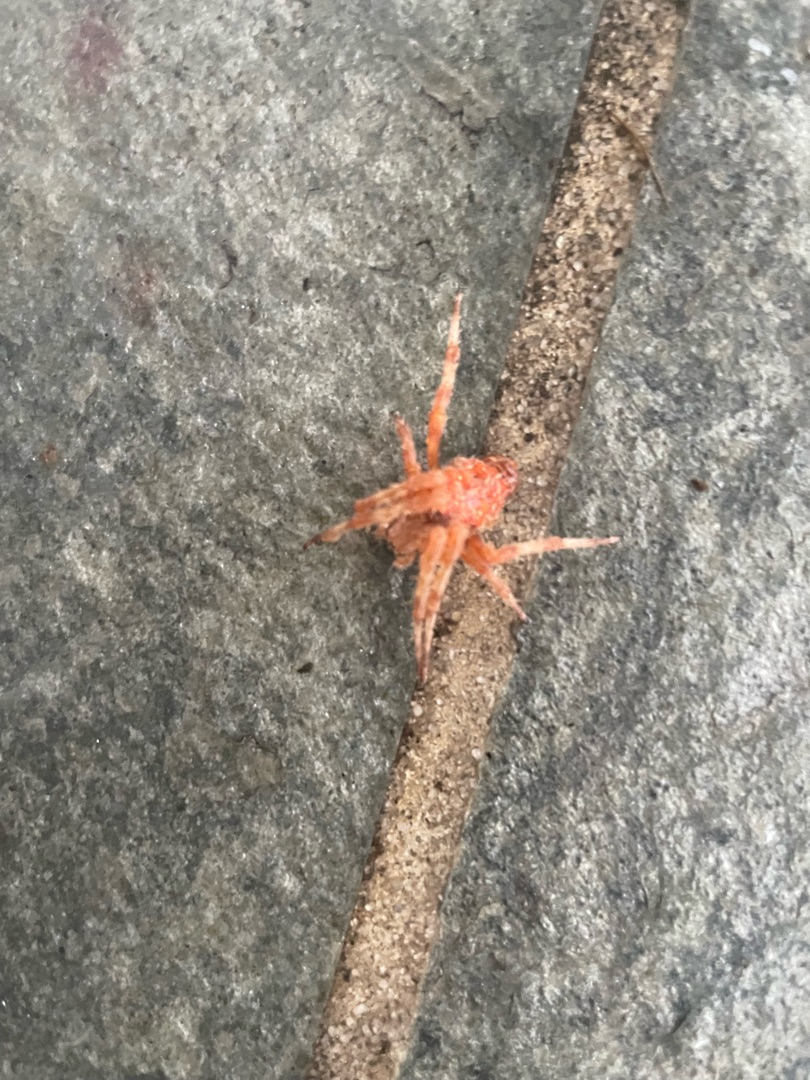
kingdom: Animalia
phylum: Arthropoda
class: Arachnida
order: Araneae
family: Araneidae
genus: Araneus
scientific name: Araneus diadematus
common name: Korsedderkop
